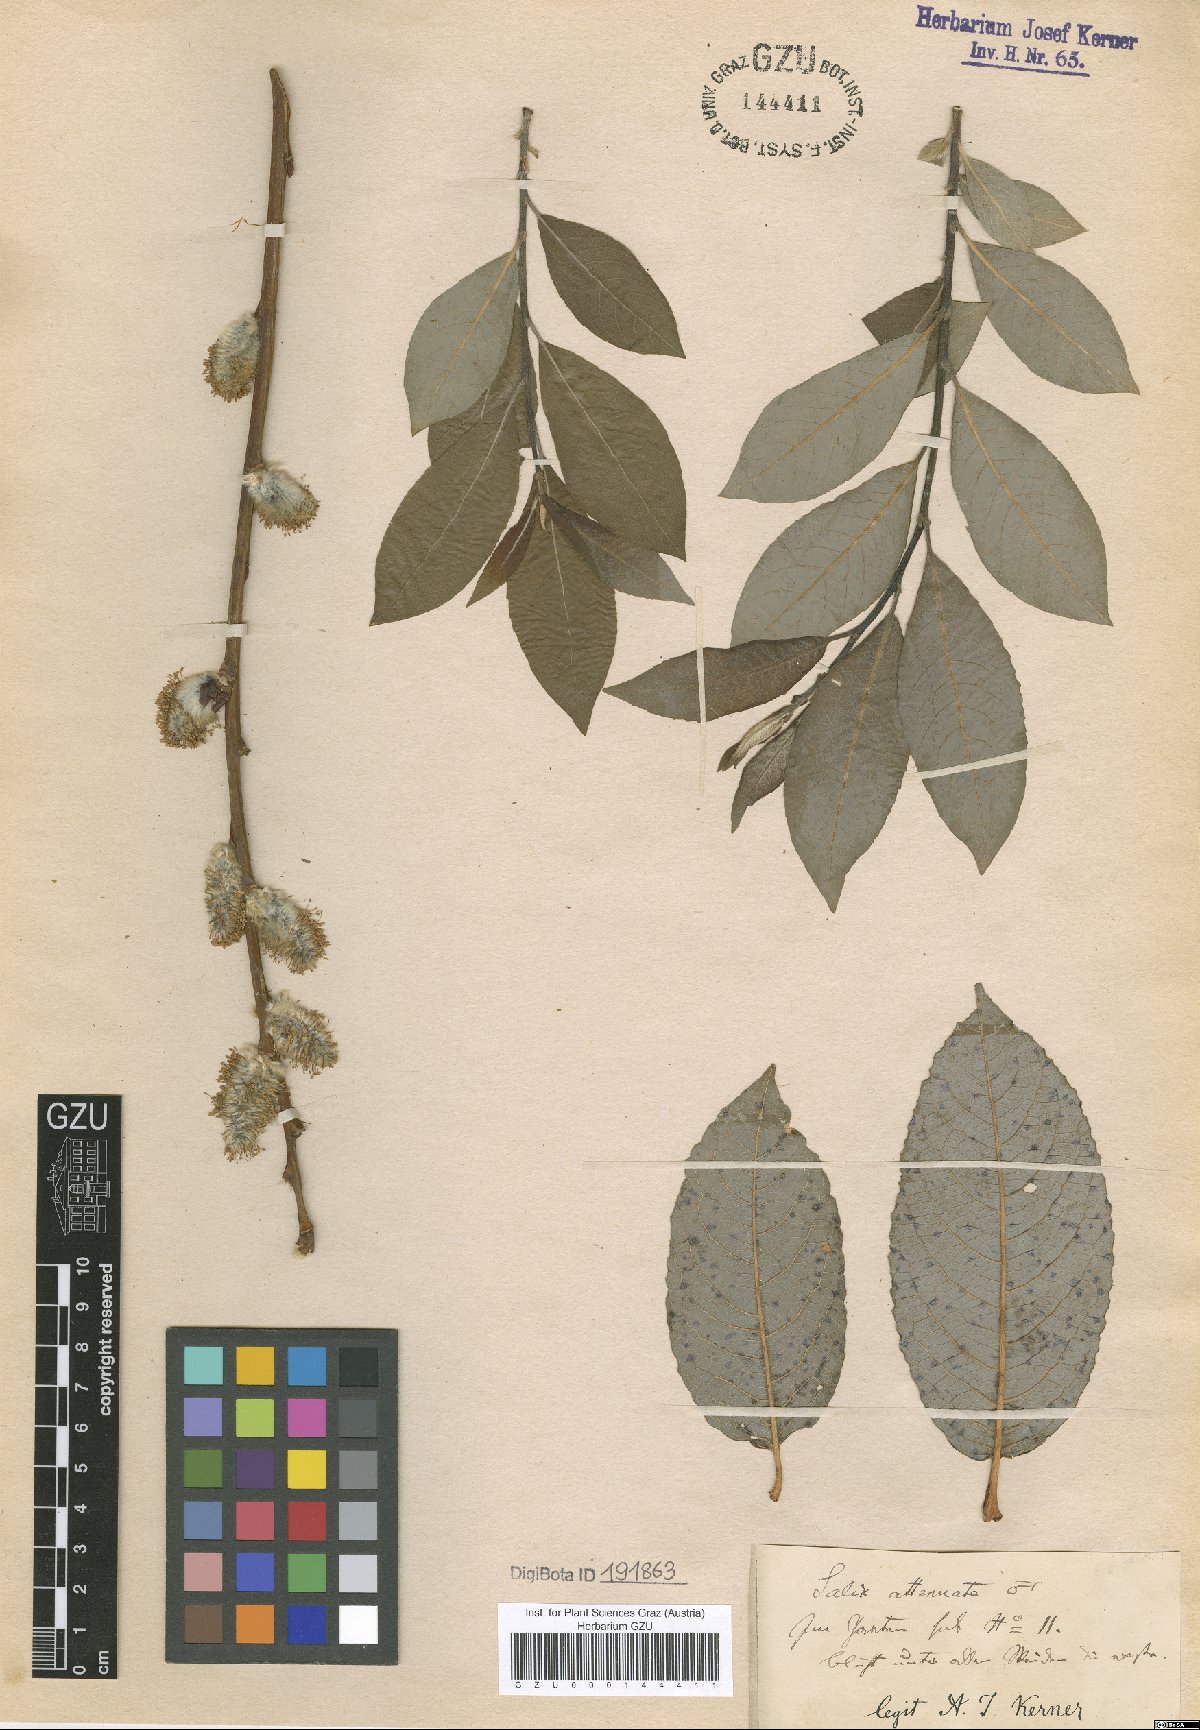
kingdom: Plantae
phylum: Tracheophyta
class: Magnoliopsida
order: Malpighiales
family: Salicaceae
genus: Salix
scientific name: Salix appendiculata
